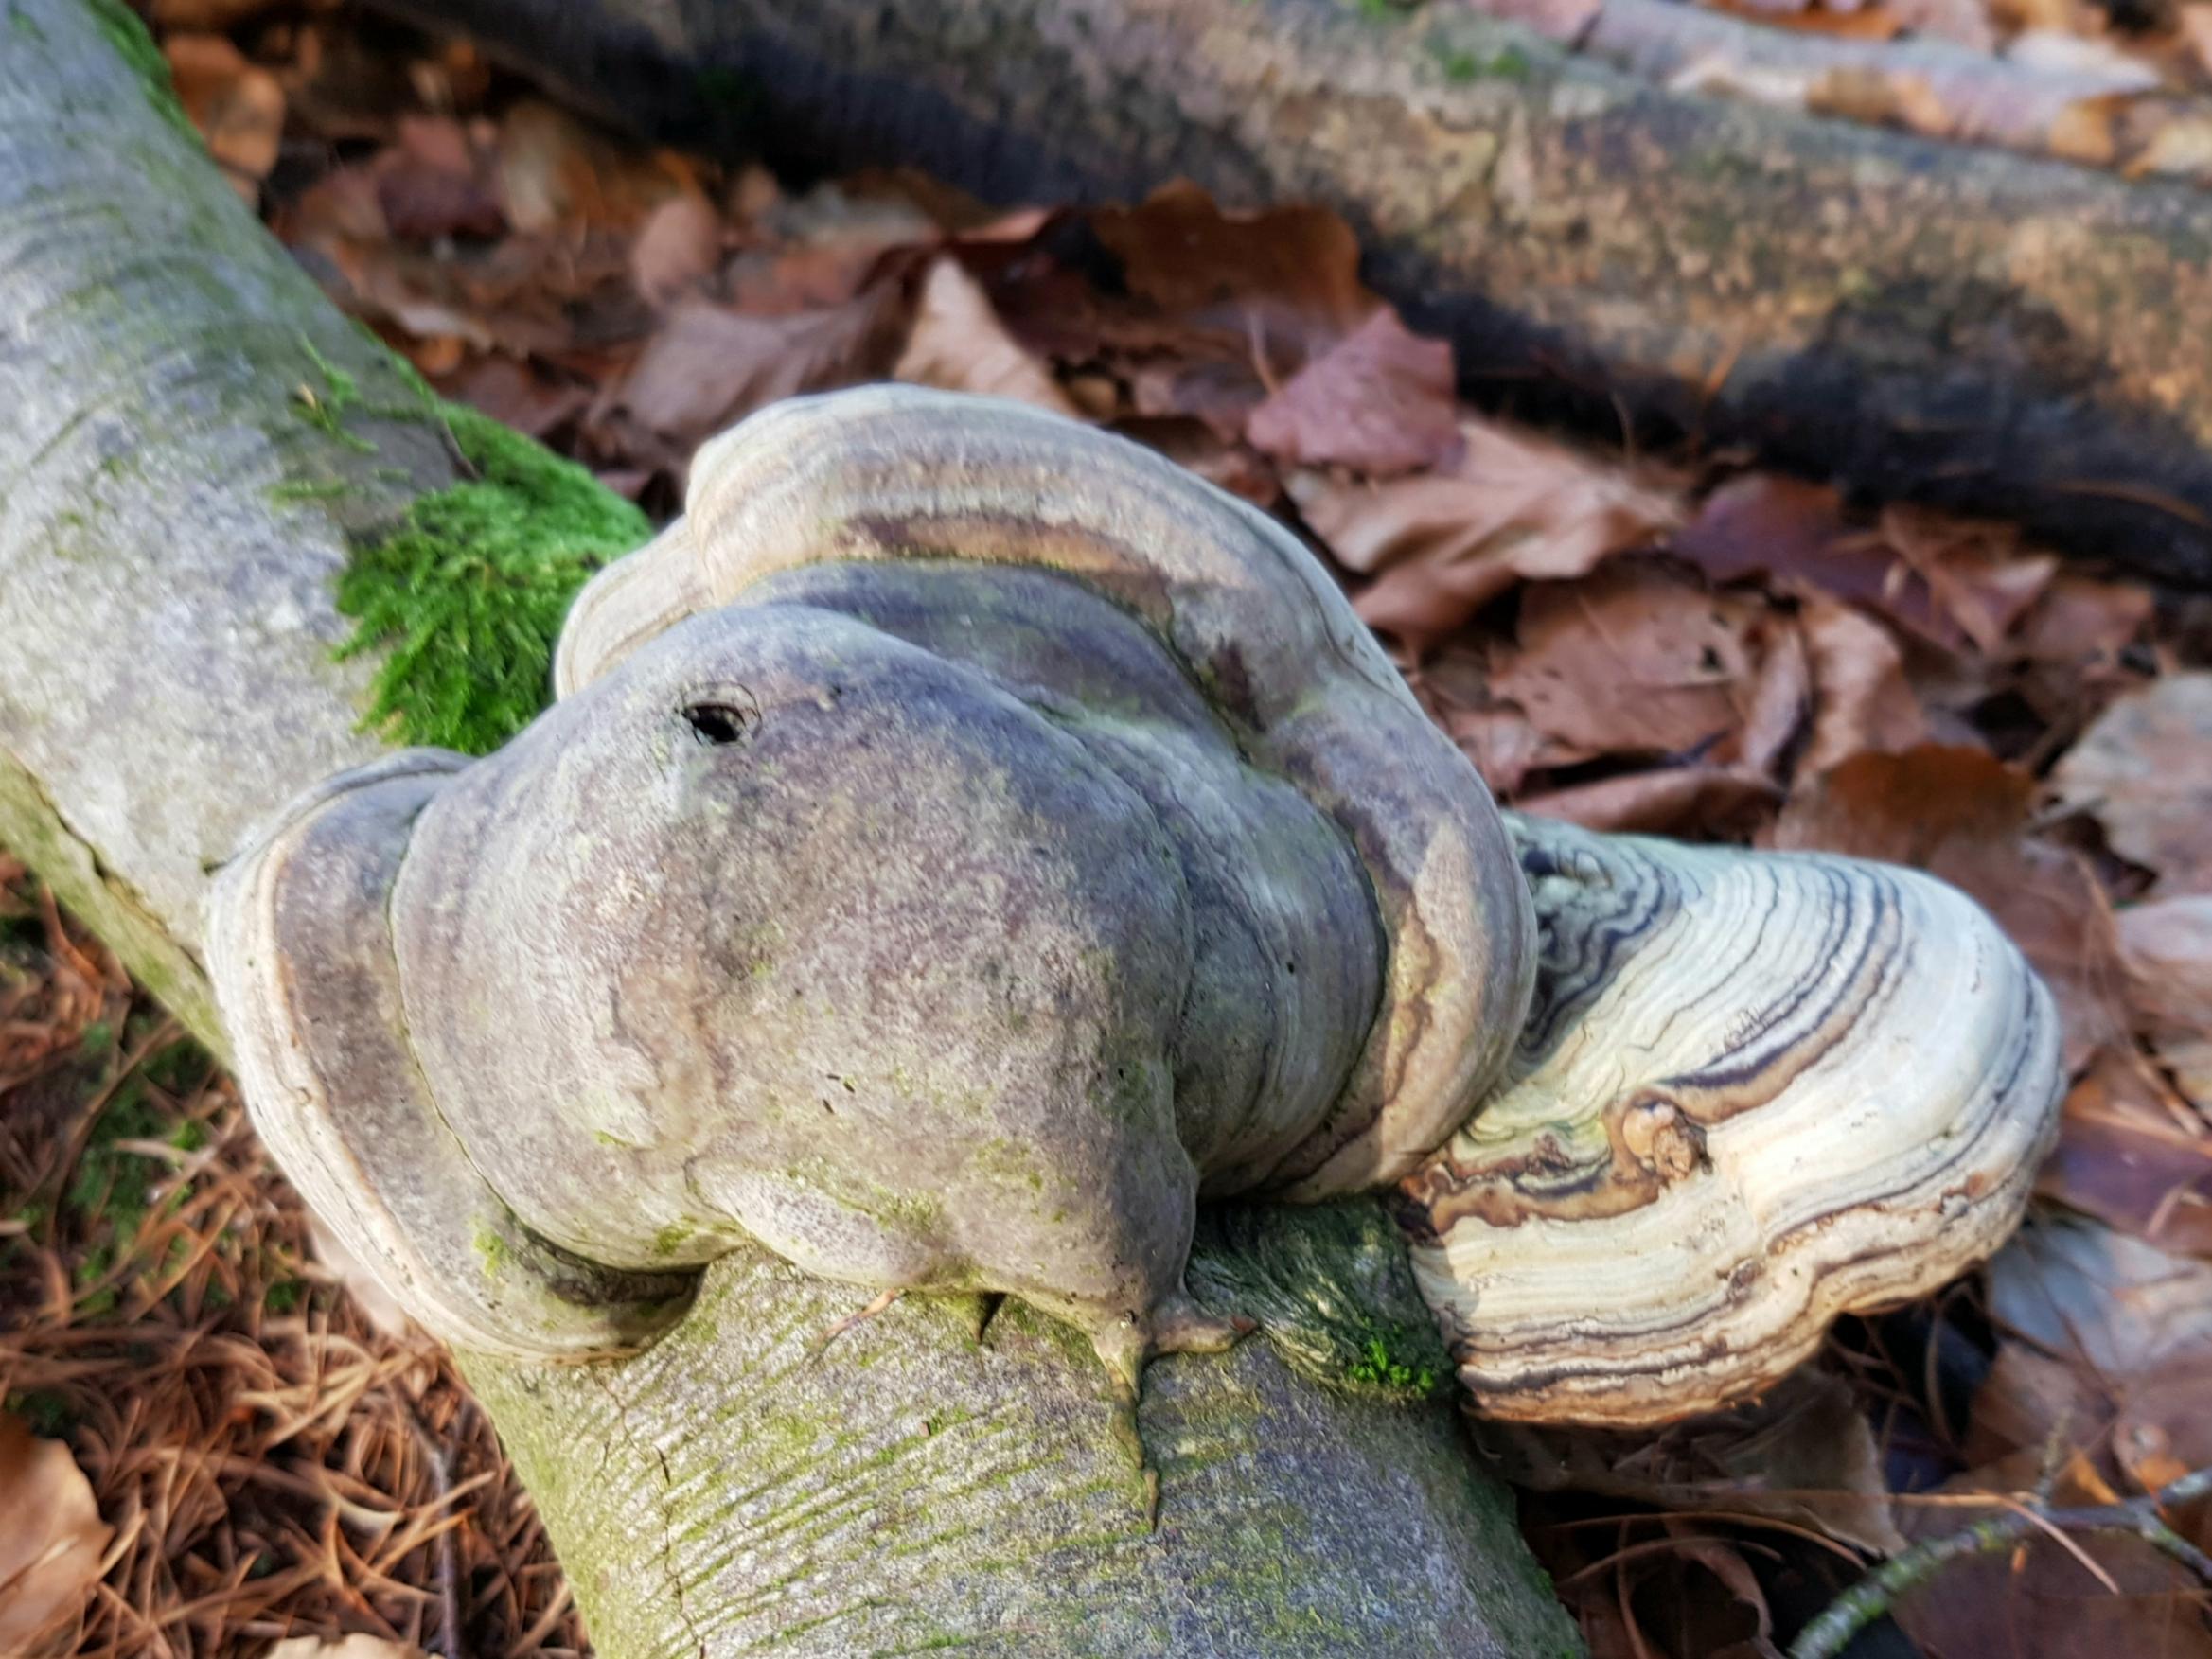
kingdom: Fungi
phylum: Basidiomycota
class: Agaricomycetes
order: Polyporales
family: Polyporaceae
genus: Fomes
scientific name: Fomes fomentarius
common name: tøndersvamp
